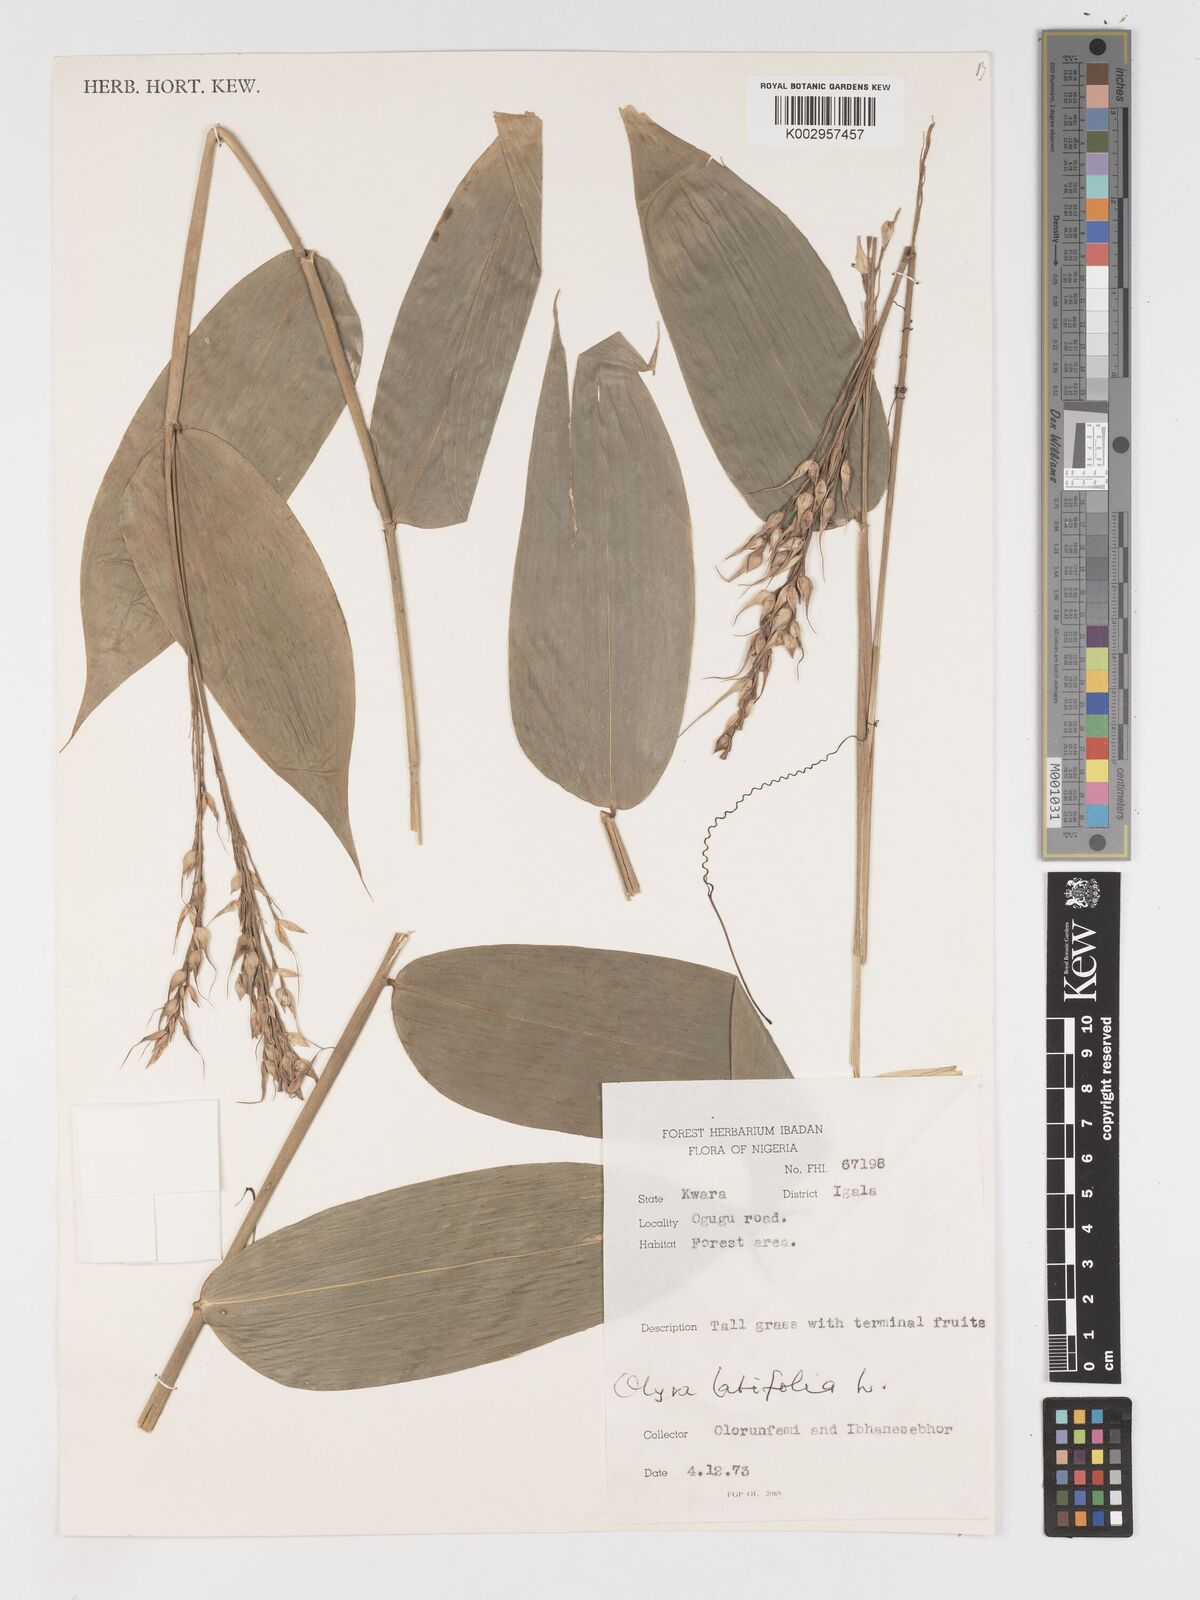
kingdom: Plantae
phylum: Tracheophyta
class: Liliopsida
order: Poales
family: Poaceae
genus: Olyra
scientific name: Olyra latifolia
